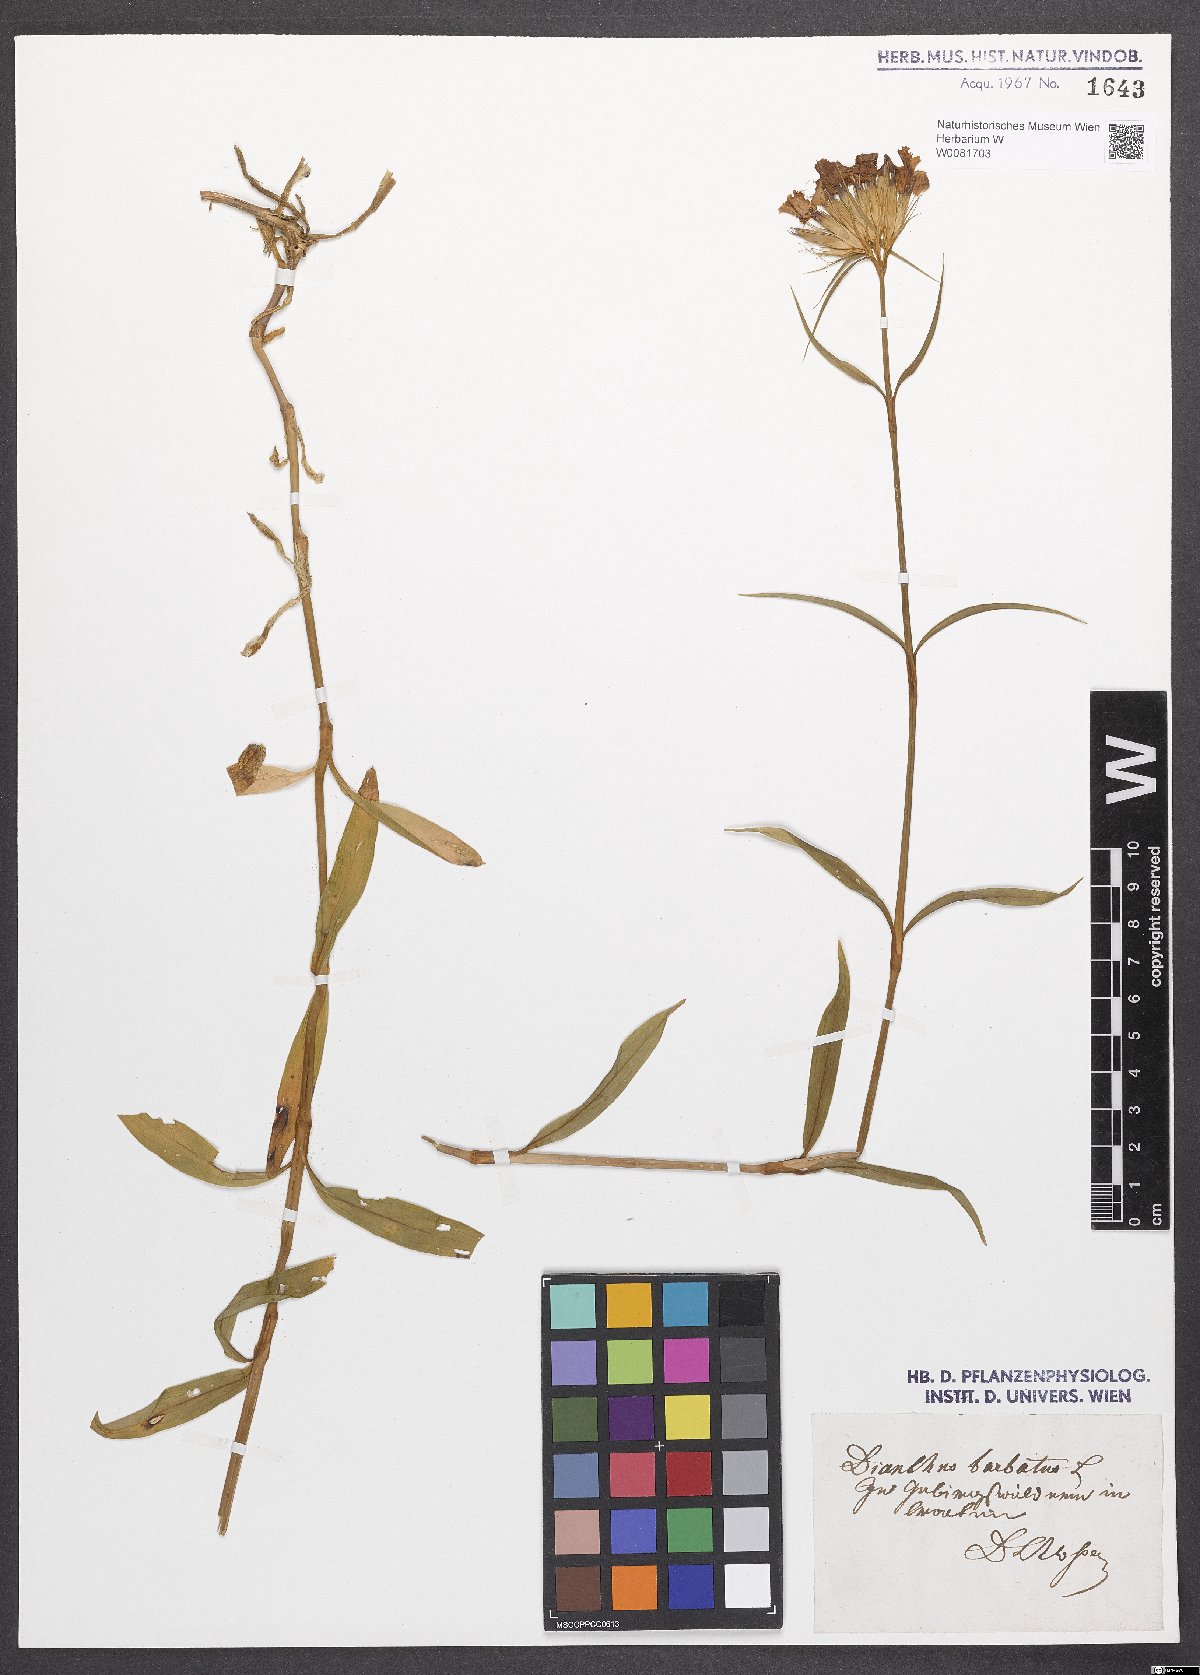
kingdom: Plantae
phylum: Tracheophyta
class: Magnoliopsida
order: Caryophyllales
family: Caryophyllaceae
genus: Dianthus
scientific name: Dianthus barbatus
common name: Sweet-william
